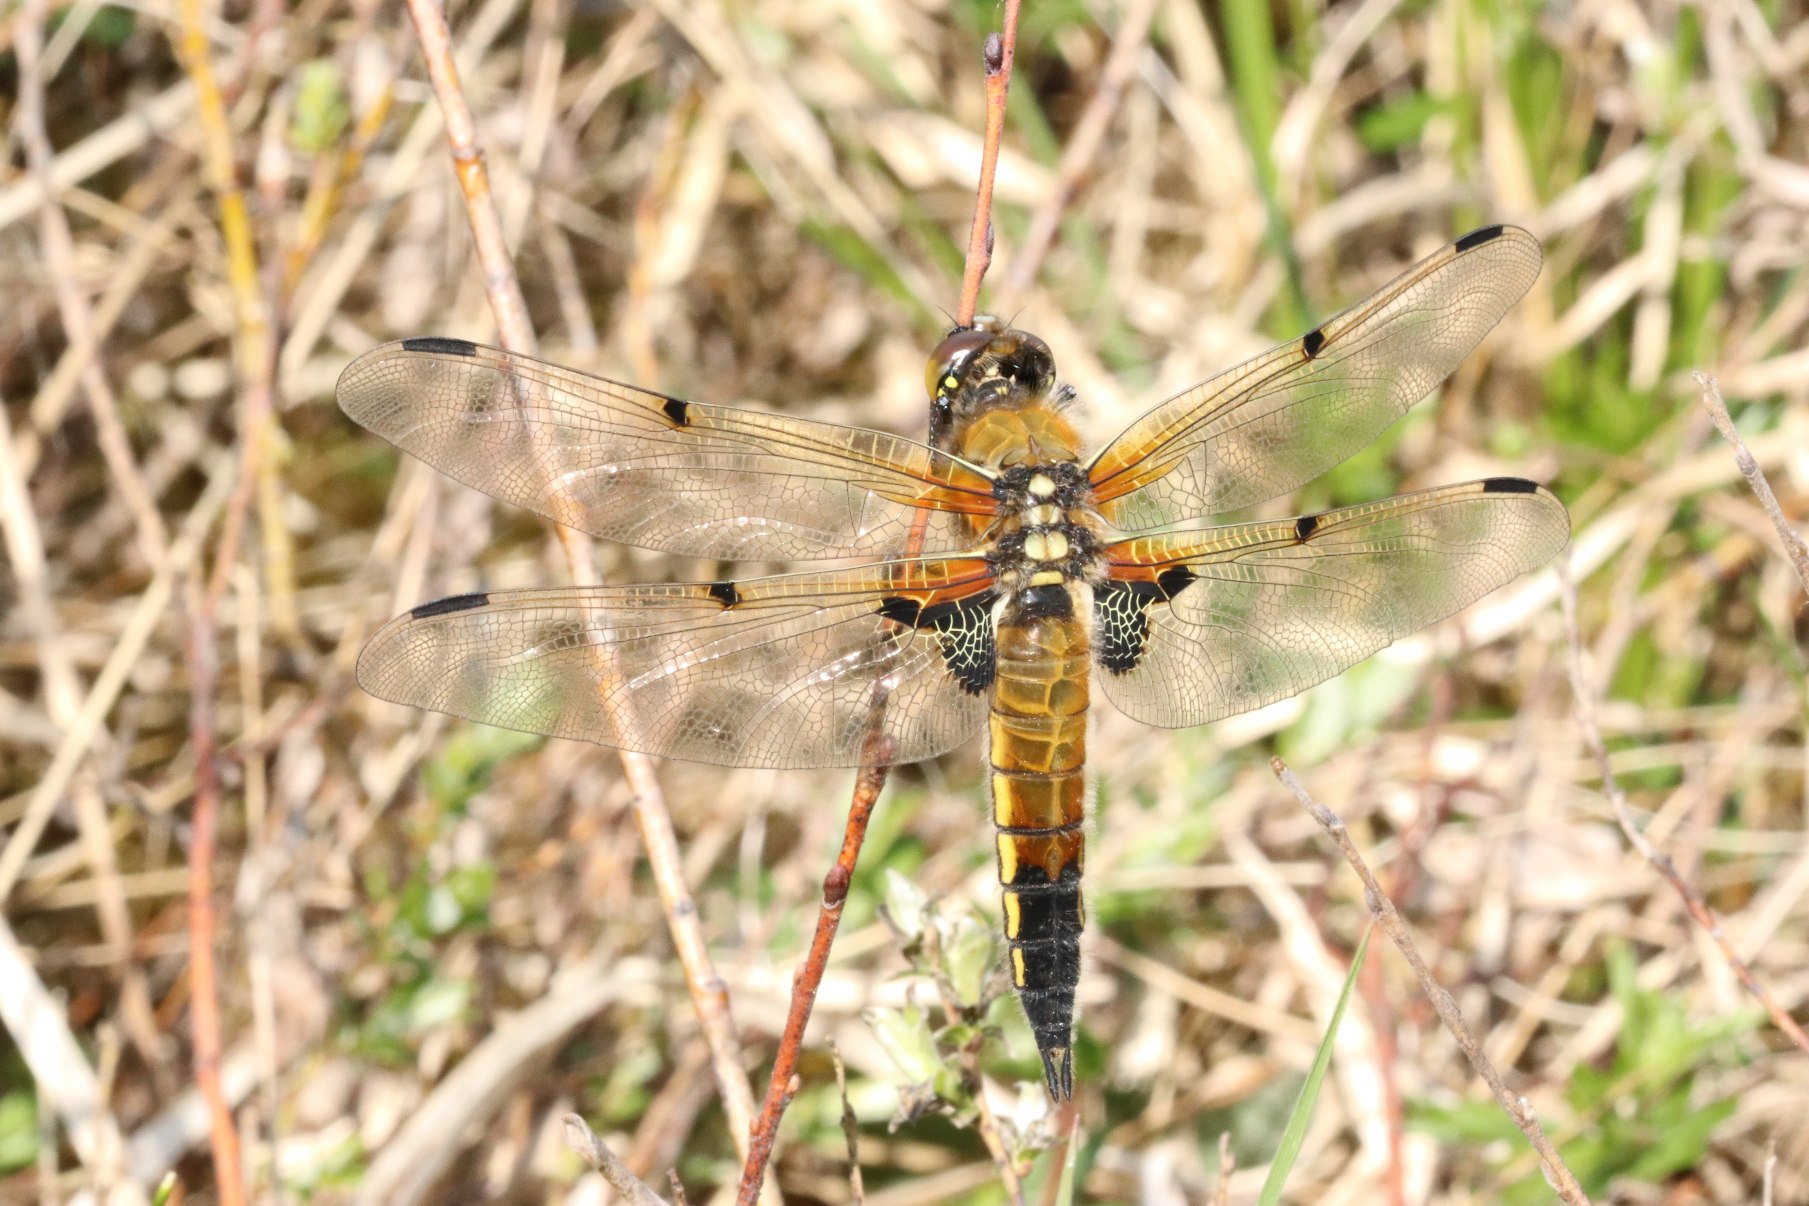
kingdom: Animalia
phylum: Arthropoda
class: Insecta
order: Odonata
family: Libellulidae
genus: Libellula
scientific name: Libellula quadrimaculata
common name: Fireplettet libel
